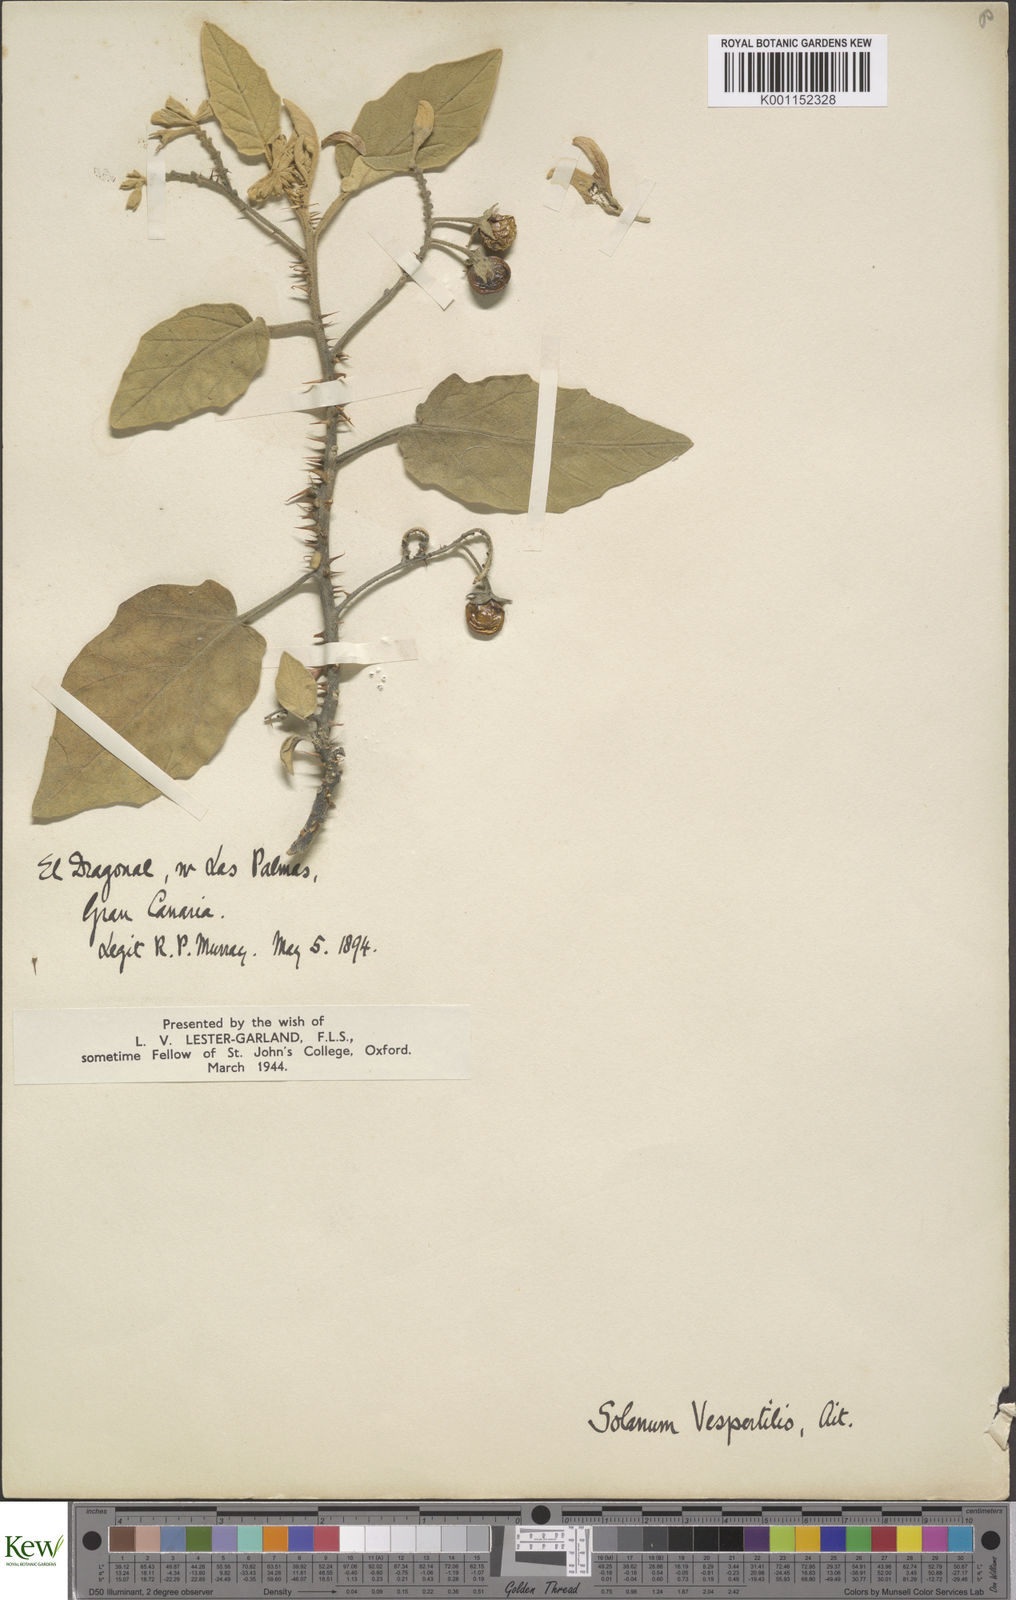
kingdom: Plantae
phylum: Tracheophyta
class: Magnoliopsida
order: Solanales
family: Solanaceae
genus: Solanum
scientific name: Solanum vespertilio
